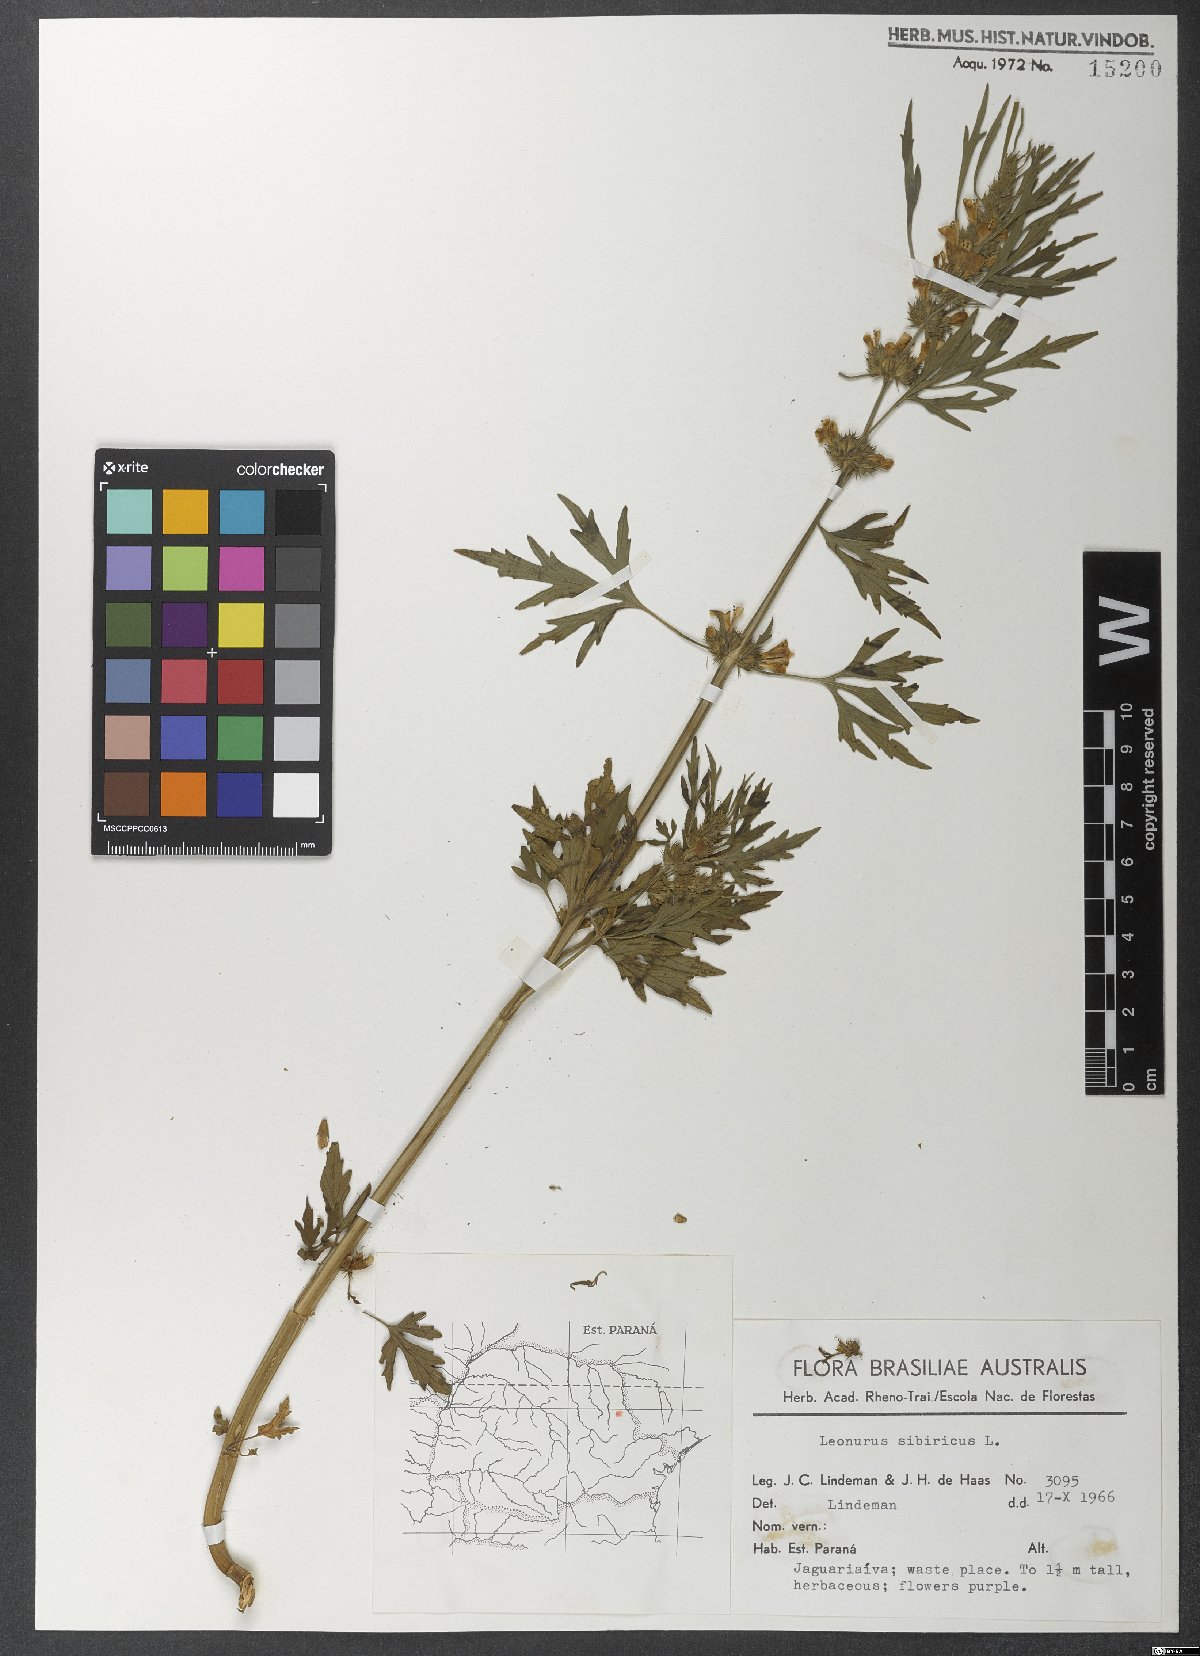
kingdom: Plantae
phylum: Tracheophyta
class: Magnoliopsida
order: Lamiales
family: Lamiaceae
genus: Leonurus
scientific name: Leonurus sibiricus
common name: Honeyweed
